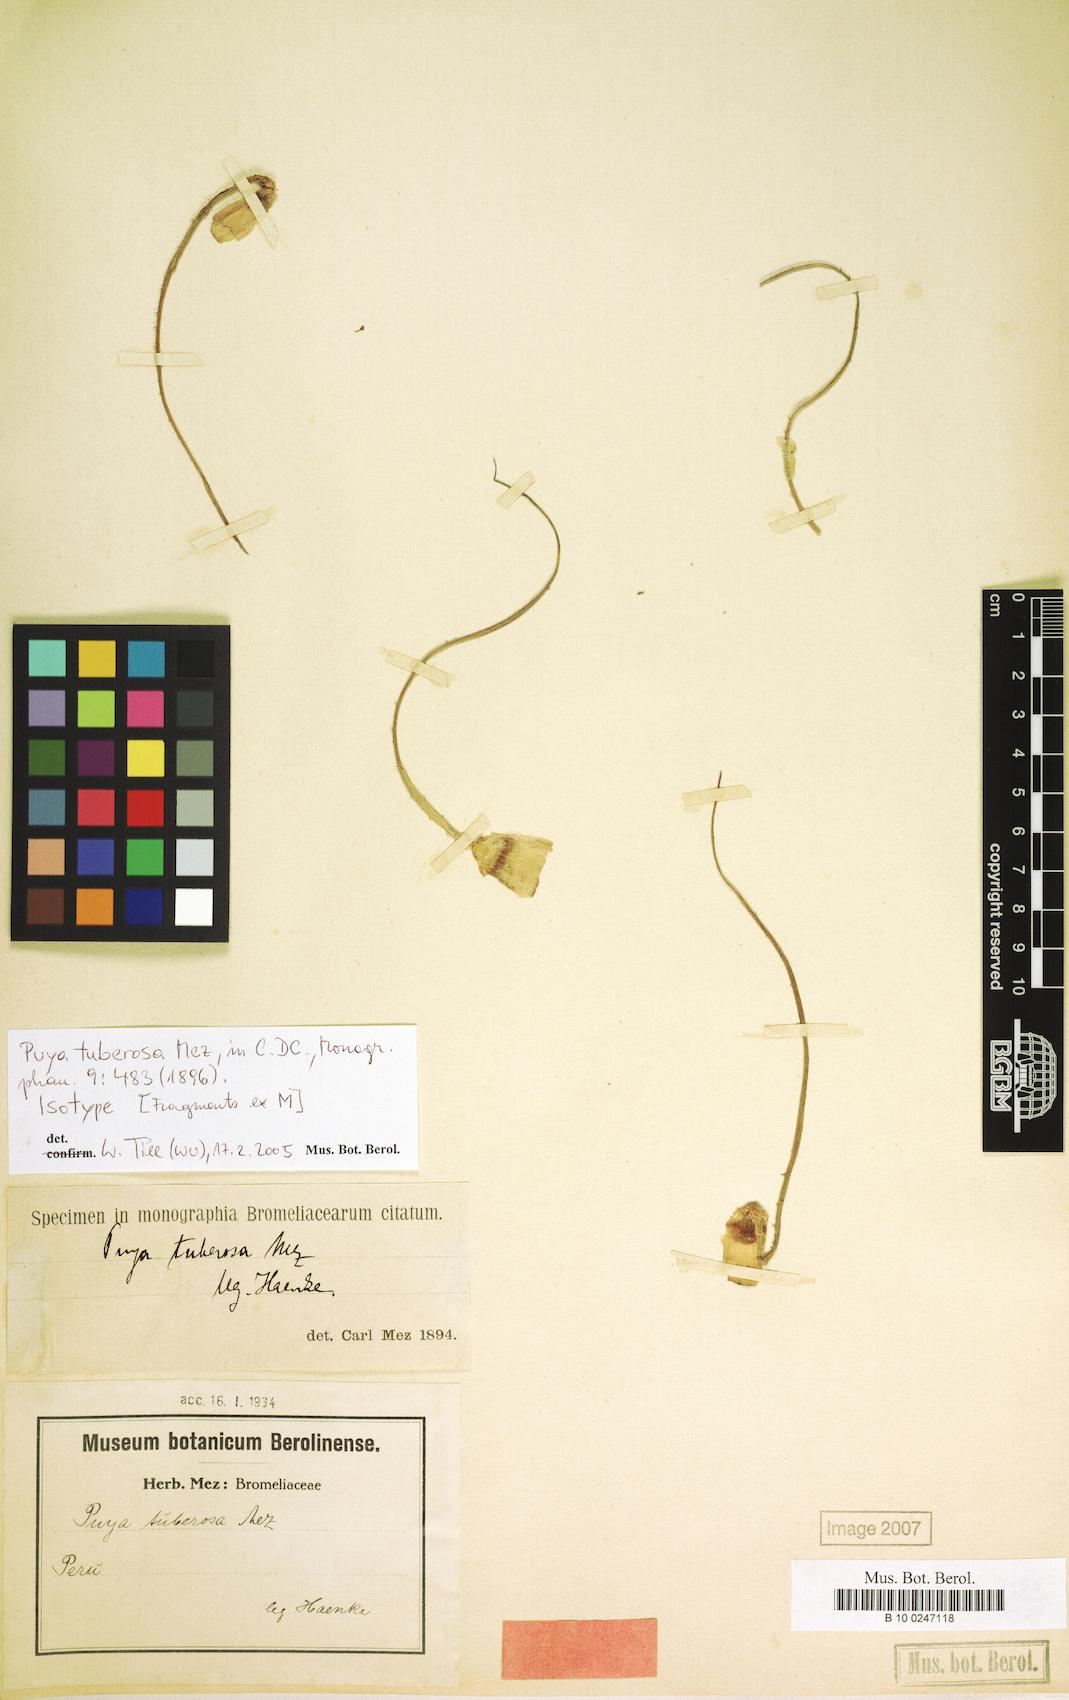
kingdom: Plantae
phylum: Tracheophyta
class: Liliopsida
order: Poales
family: Bromeliaceae
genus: Puya
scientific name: Puya tuberosa
